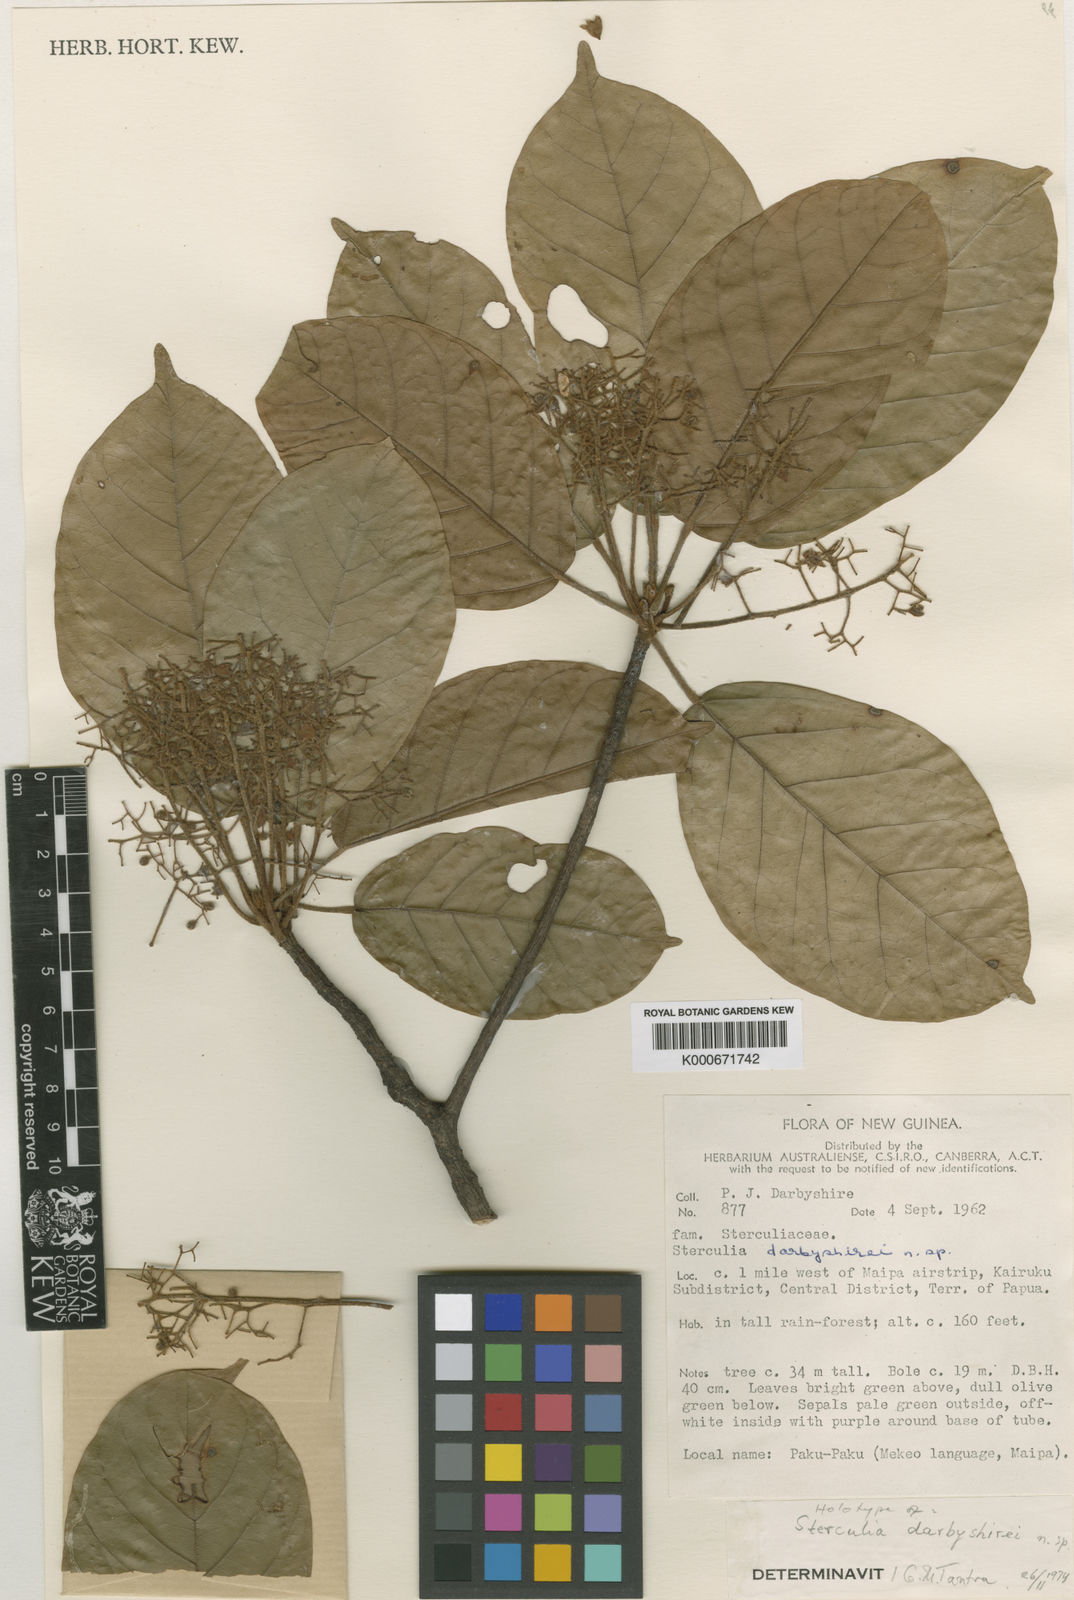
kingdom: Plantae
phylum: Tracheophyta
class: Magnoliopsida
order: Malvales
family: Malvaceae
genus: Sterculia
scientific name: Sterculia darbyshirei
